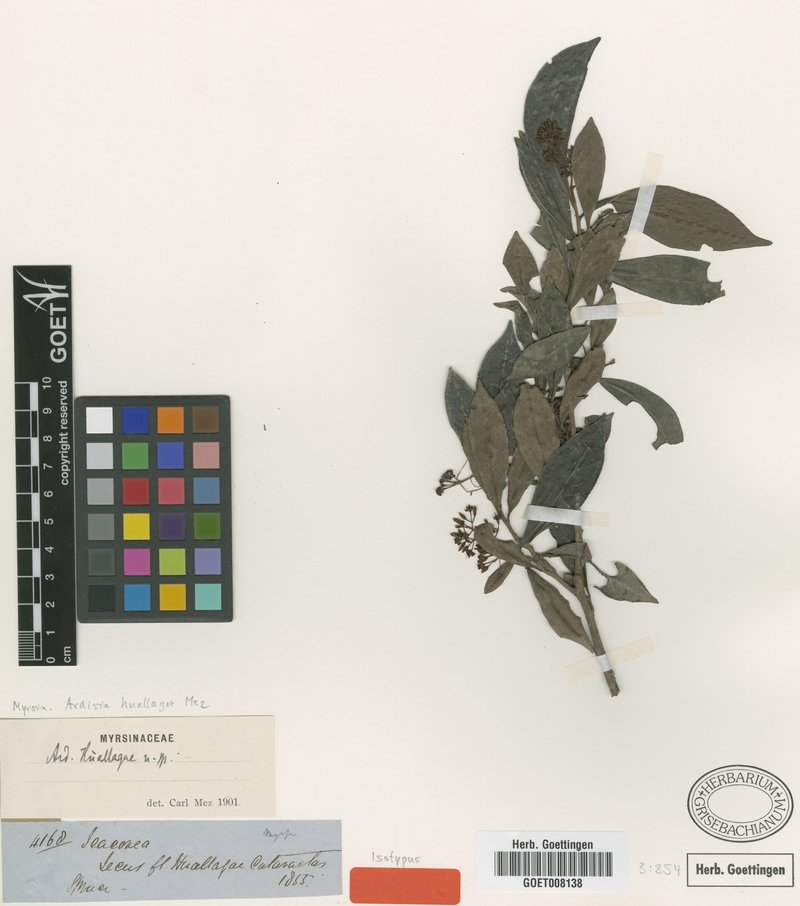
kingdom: Plantae
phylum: Tracheophyta
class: Magnoliopsida
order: Ericales
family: Primulaceae
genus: Ardisia
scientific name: Ardisia huallagae
